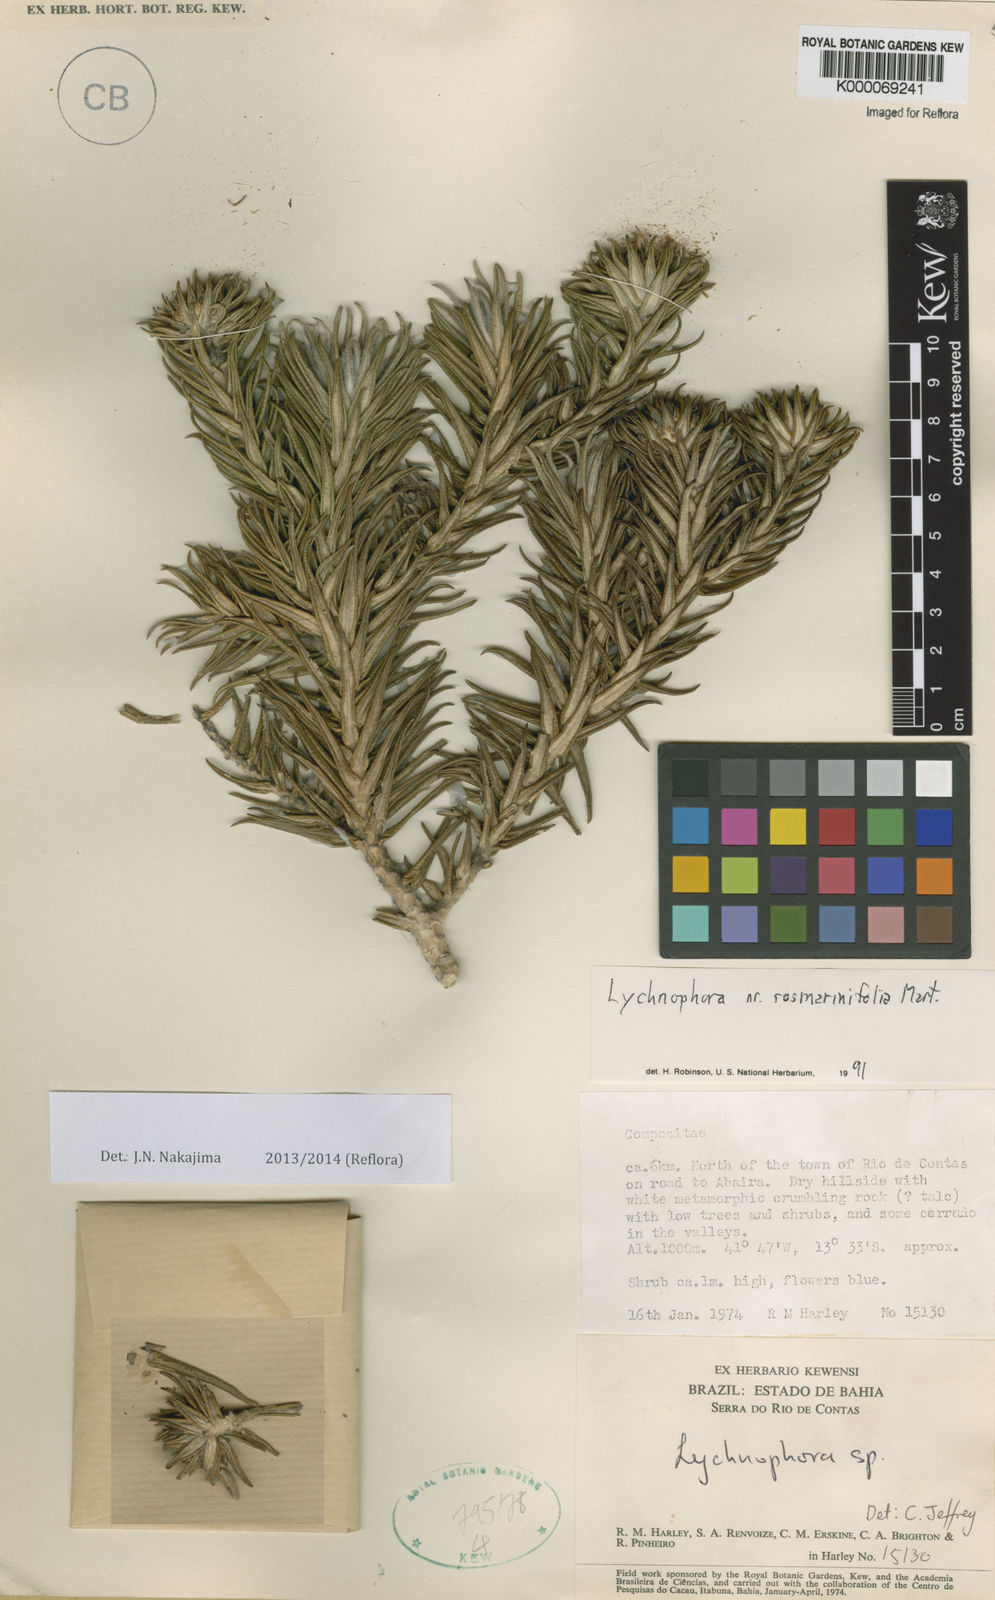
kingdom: Plantae
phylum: Tracheophyta
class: Magnoliopsida
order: Asterales
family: Asteraceae
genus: Lychnophora
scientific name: Lychnophora
